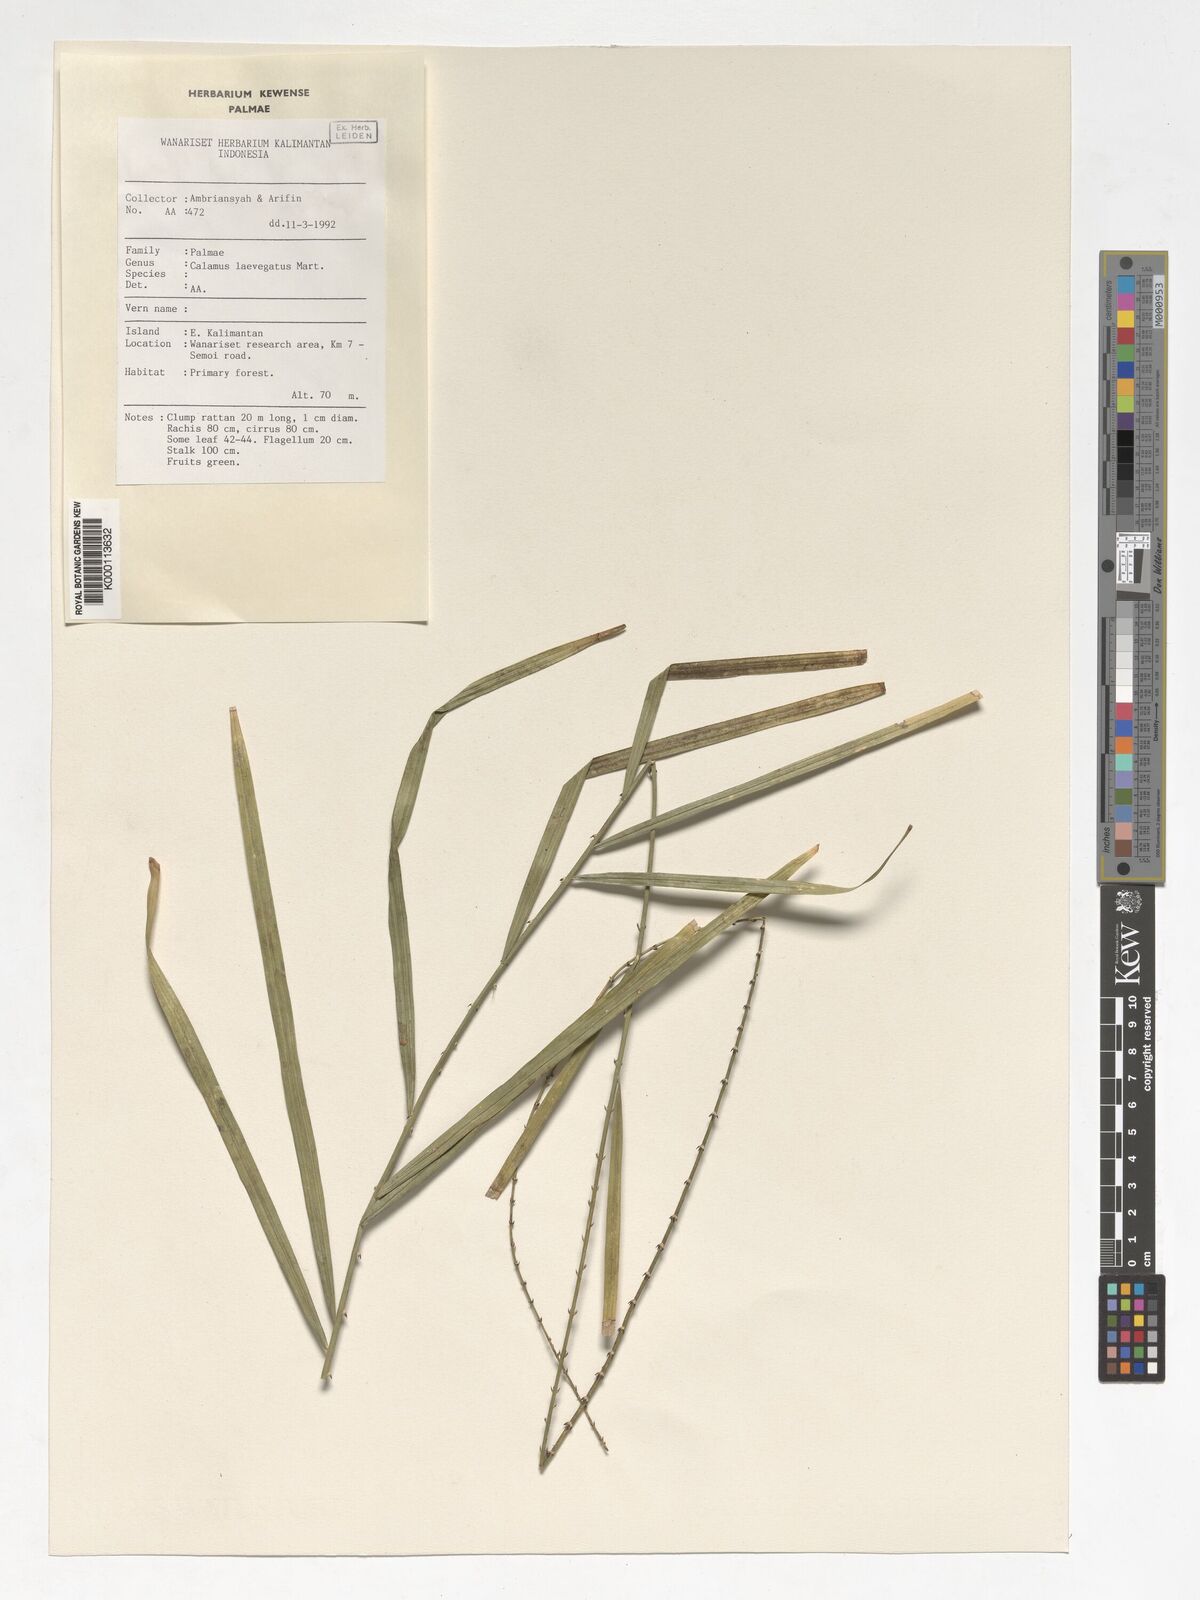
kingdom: Plantae
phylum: Tracheophyta
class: Liliopsida
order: Arecales
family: Arecaceae
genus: Calamus
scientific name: Calamus
